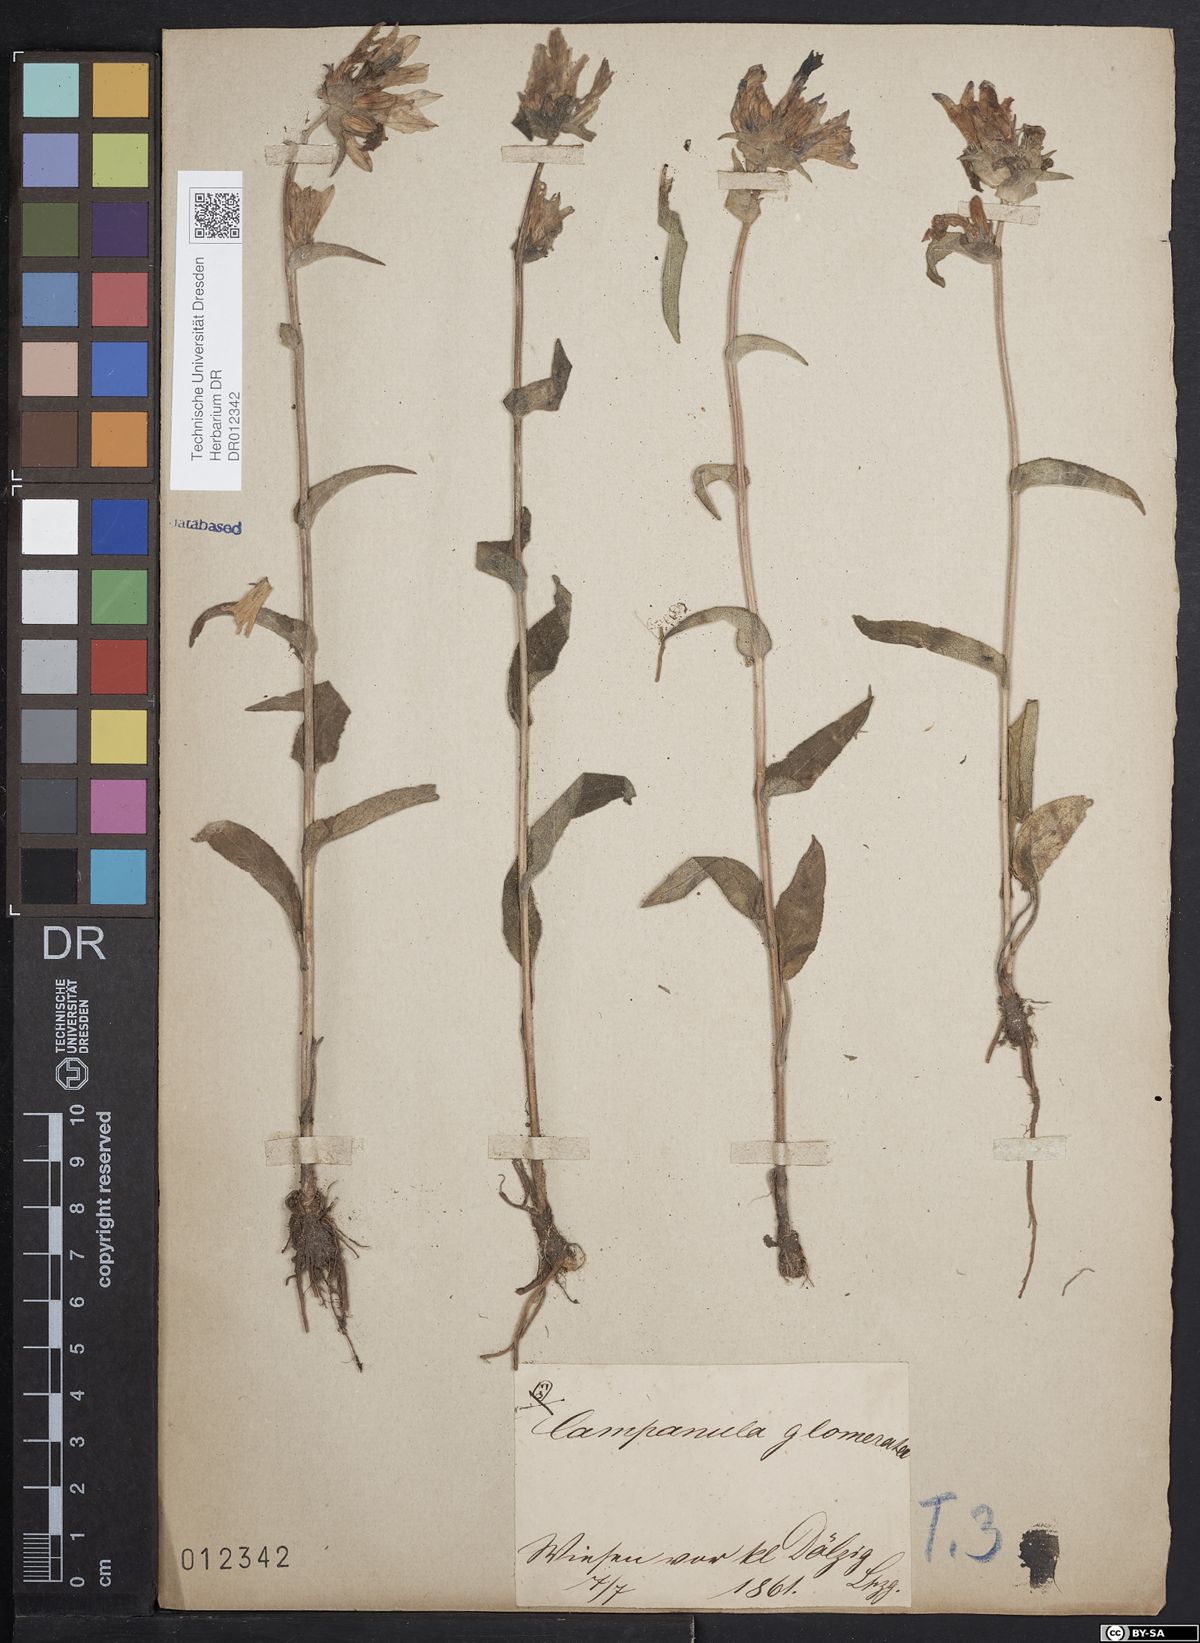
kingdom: Plantae
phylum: Tracheophyta
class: Magnoliopsida
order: Asterales
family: Campanulaceae
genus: Campanula
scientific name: Campanula glomerata
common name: Clustered bellflower
